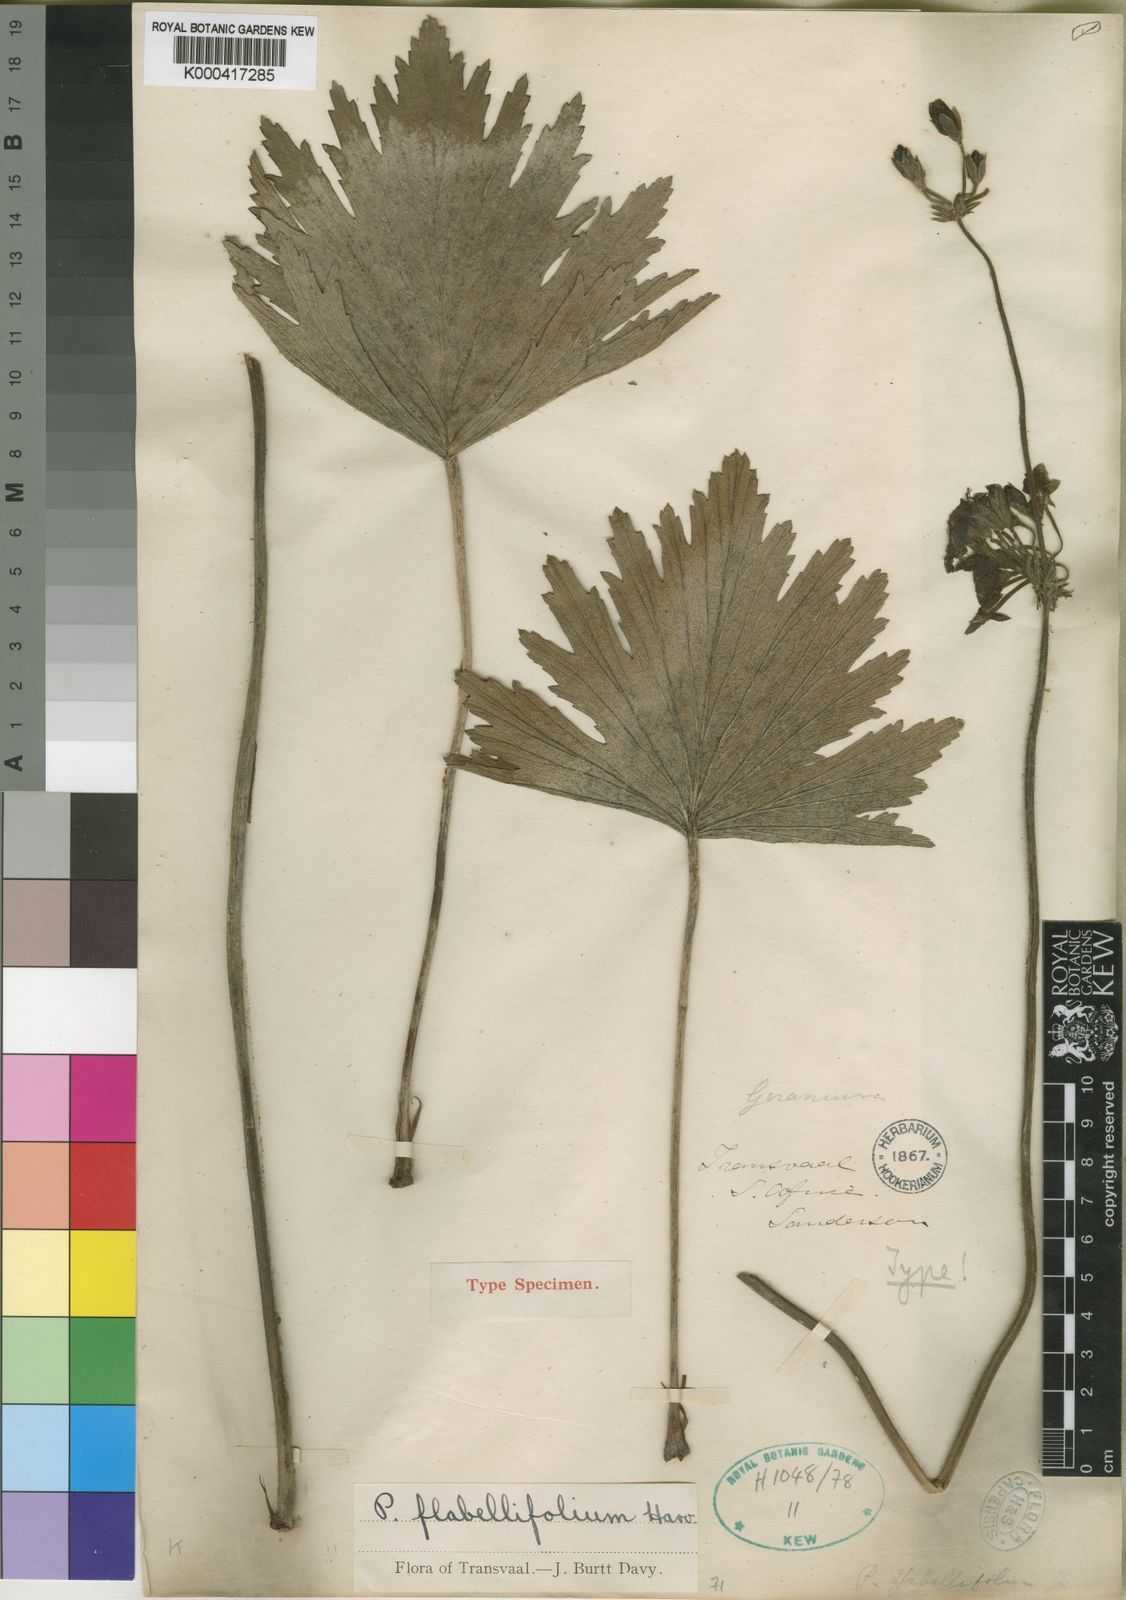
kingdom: Plantae
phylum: Tracheophyta
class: Magnoliopsida
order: Geraniales
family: Geraniaceae
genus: Pelargonium
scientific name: Pelargonium luridum
